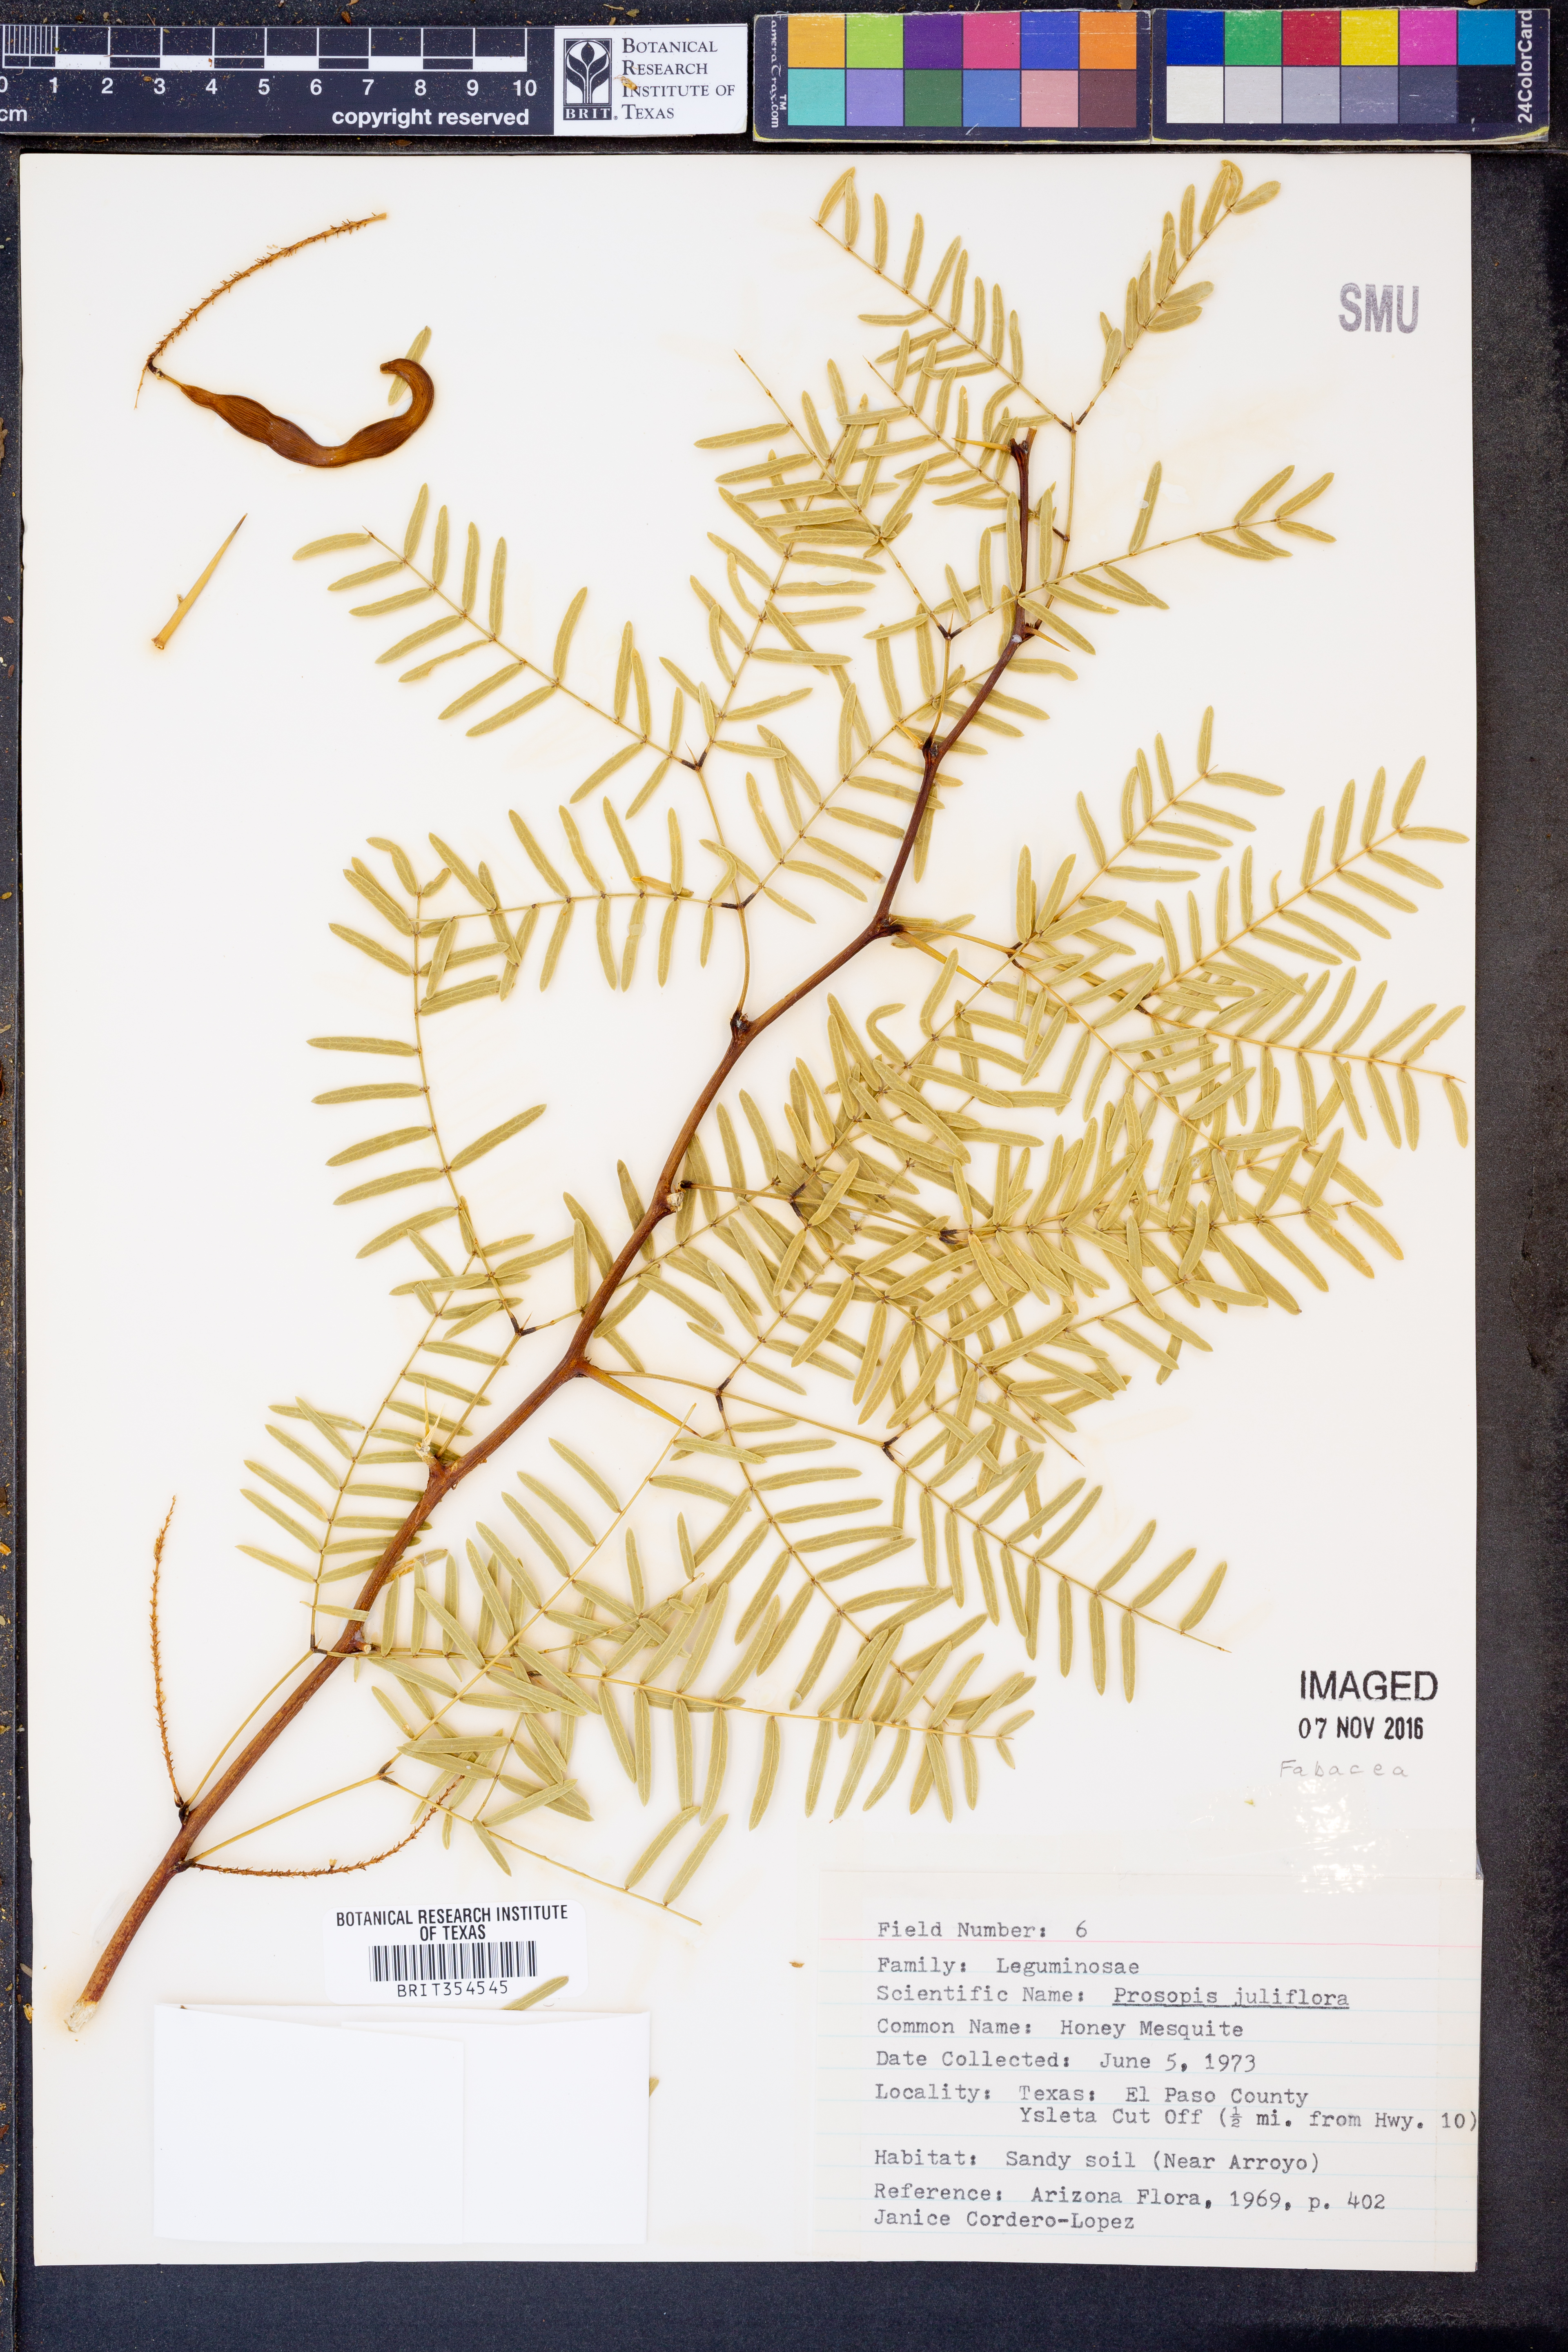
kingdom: Plantae
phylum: Tracheophyta
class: Magnoliopsida
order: Fabales
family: Fabaceae
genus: Prosopis
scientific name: Prosopis juliflora
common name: Mesquite
